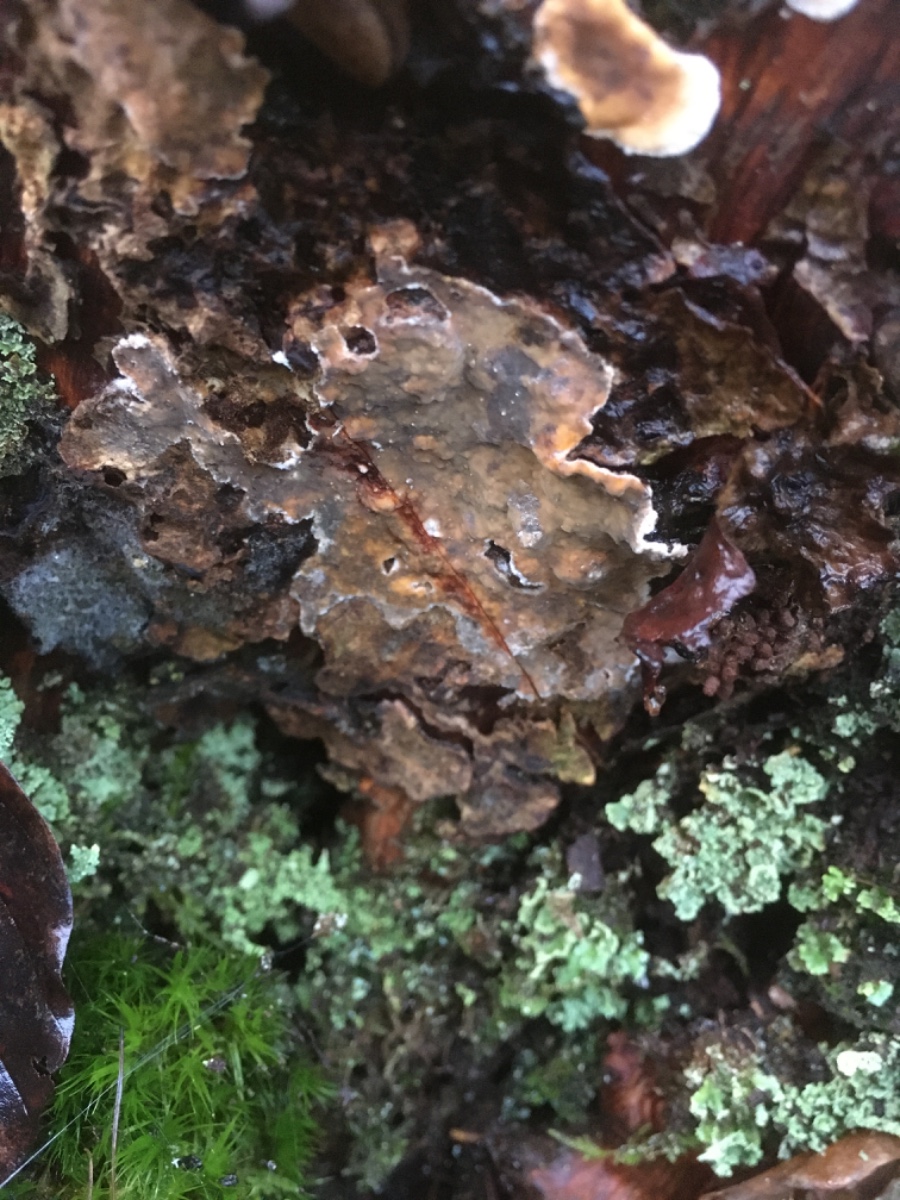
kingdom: Fungi
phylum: Basidiomycota
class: Agaricomycetes
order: Russulales
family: Stereaceae
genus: Stereum
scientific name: Stereum rugosum
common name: rynket lædersvamp
